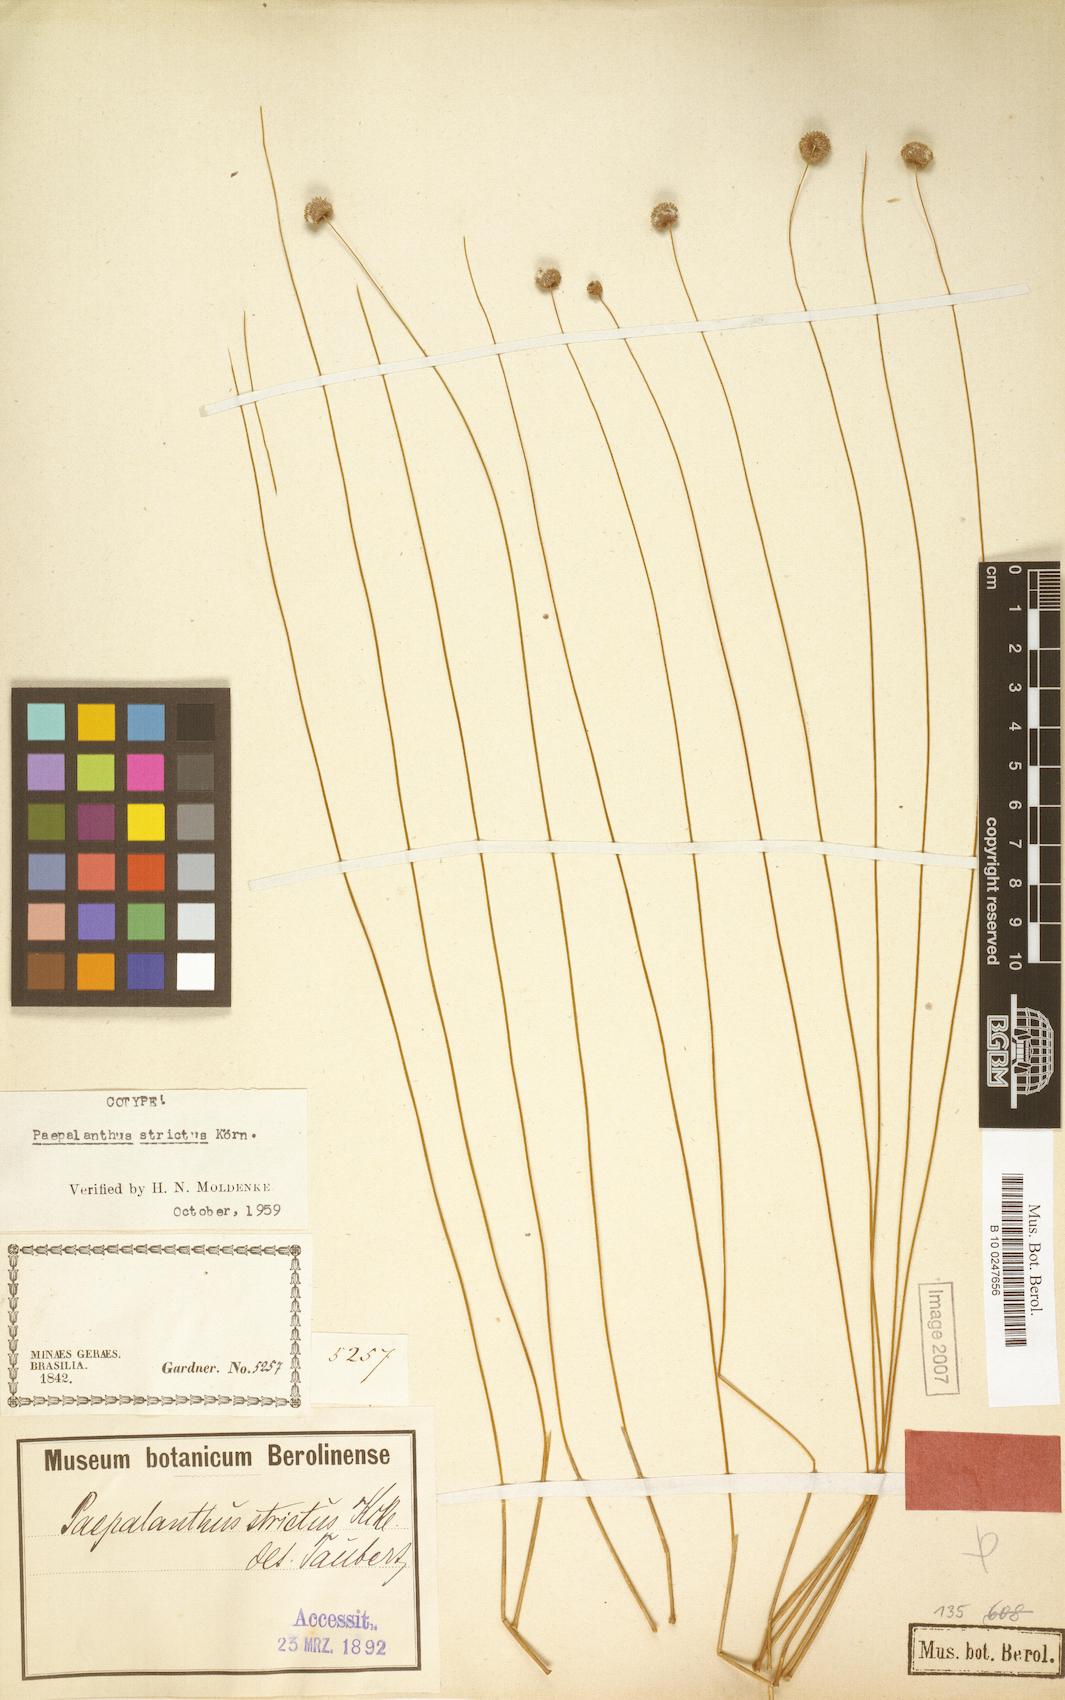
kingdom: Plantae
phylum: Tracheophyta
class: Liliopsida
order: Poales
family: Eriocaulaceae
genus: Paepalanthus
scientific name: Paepalanthus strictus
